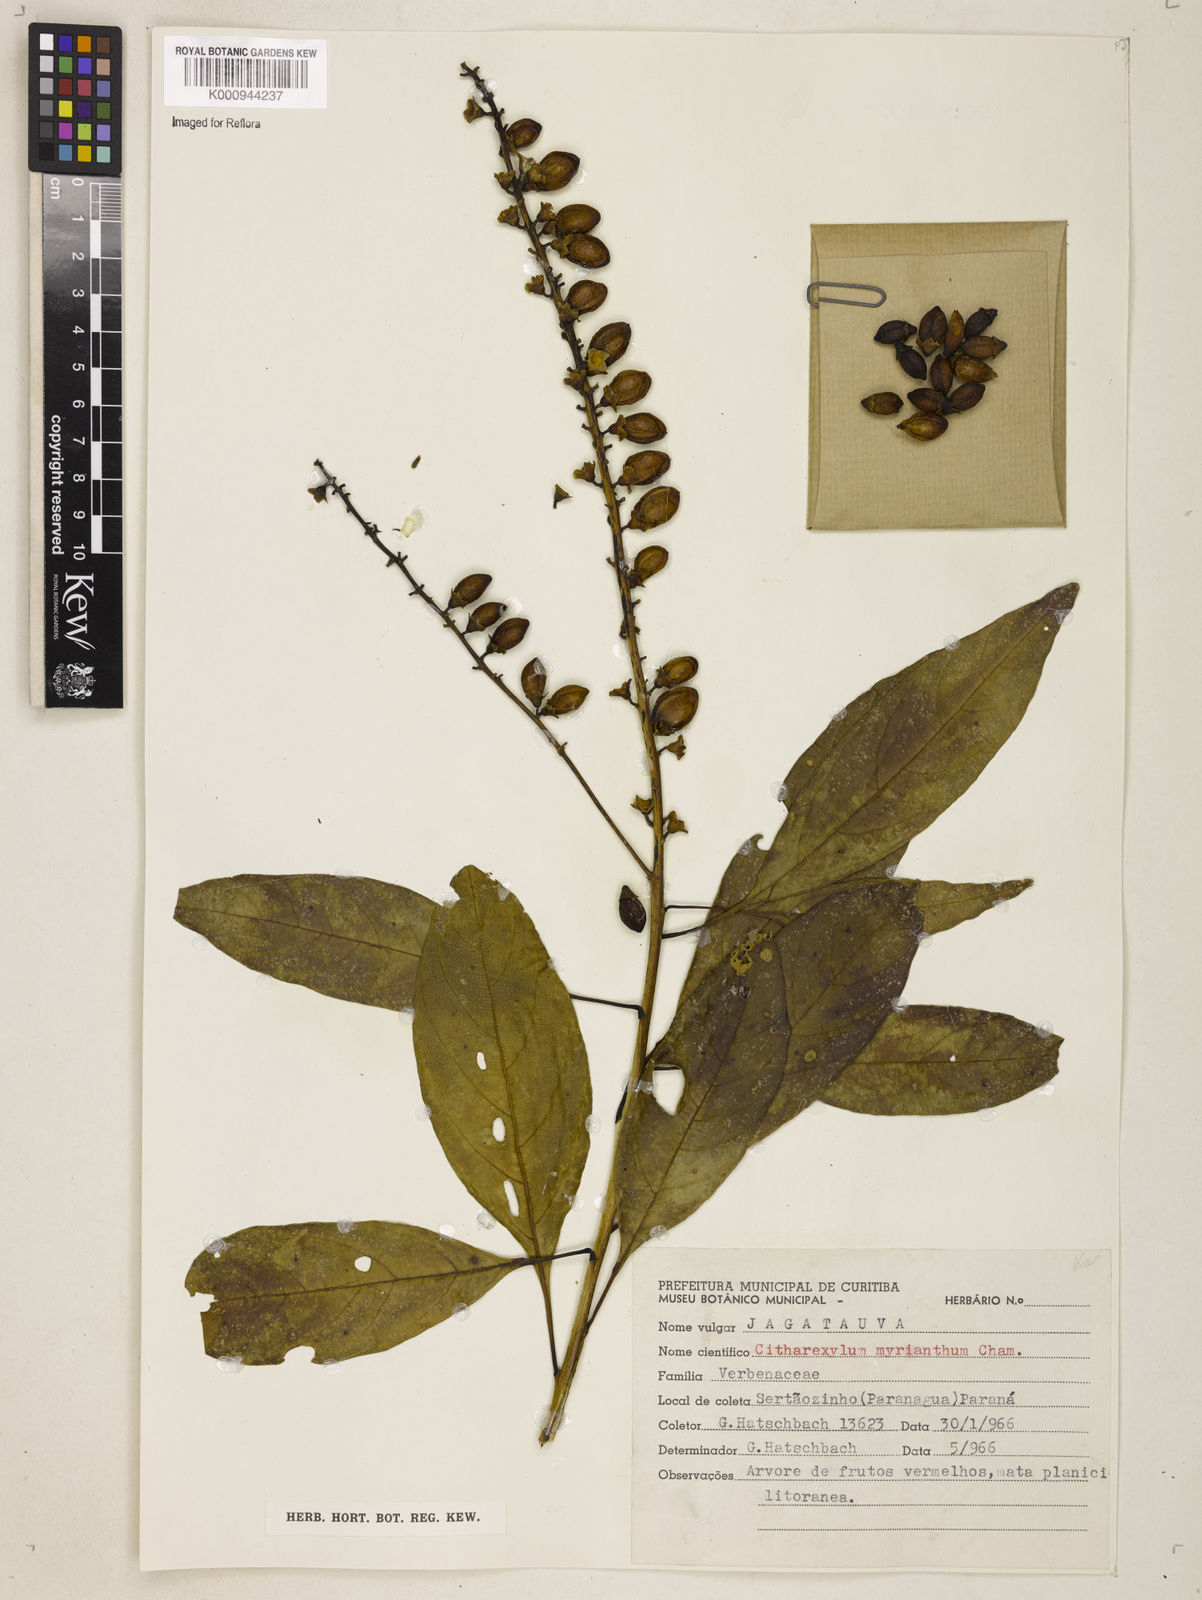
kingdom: Plantae
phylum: Tracheophyta
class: Magnoliopsida
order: Lamiales
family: Verbenaceae
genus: Citharexylum
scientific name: Citharexylum myrianthum
